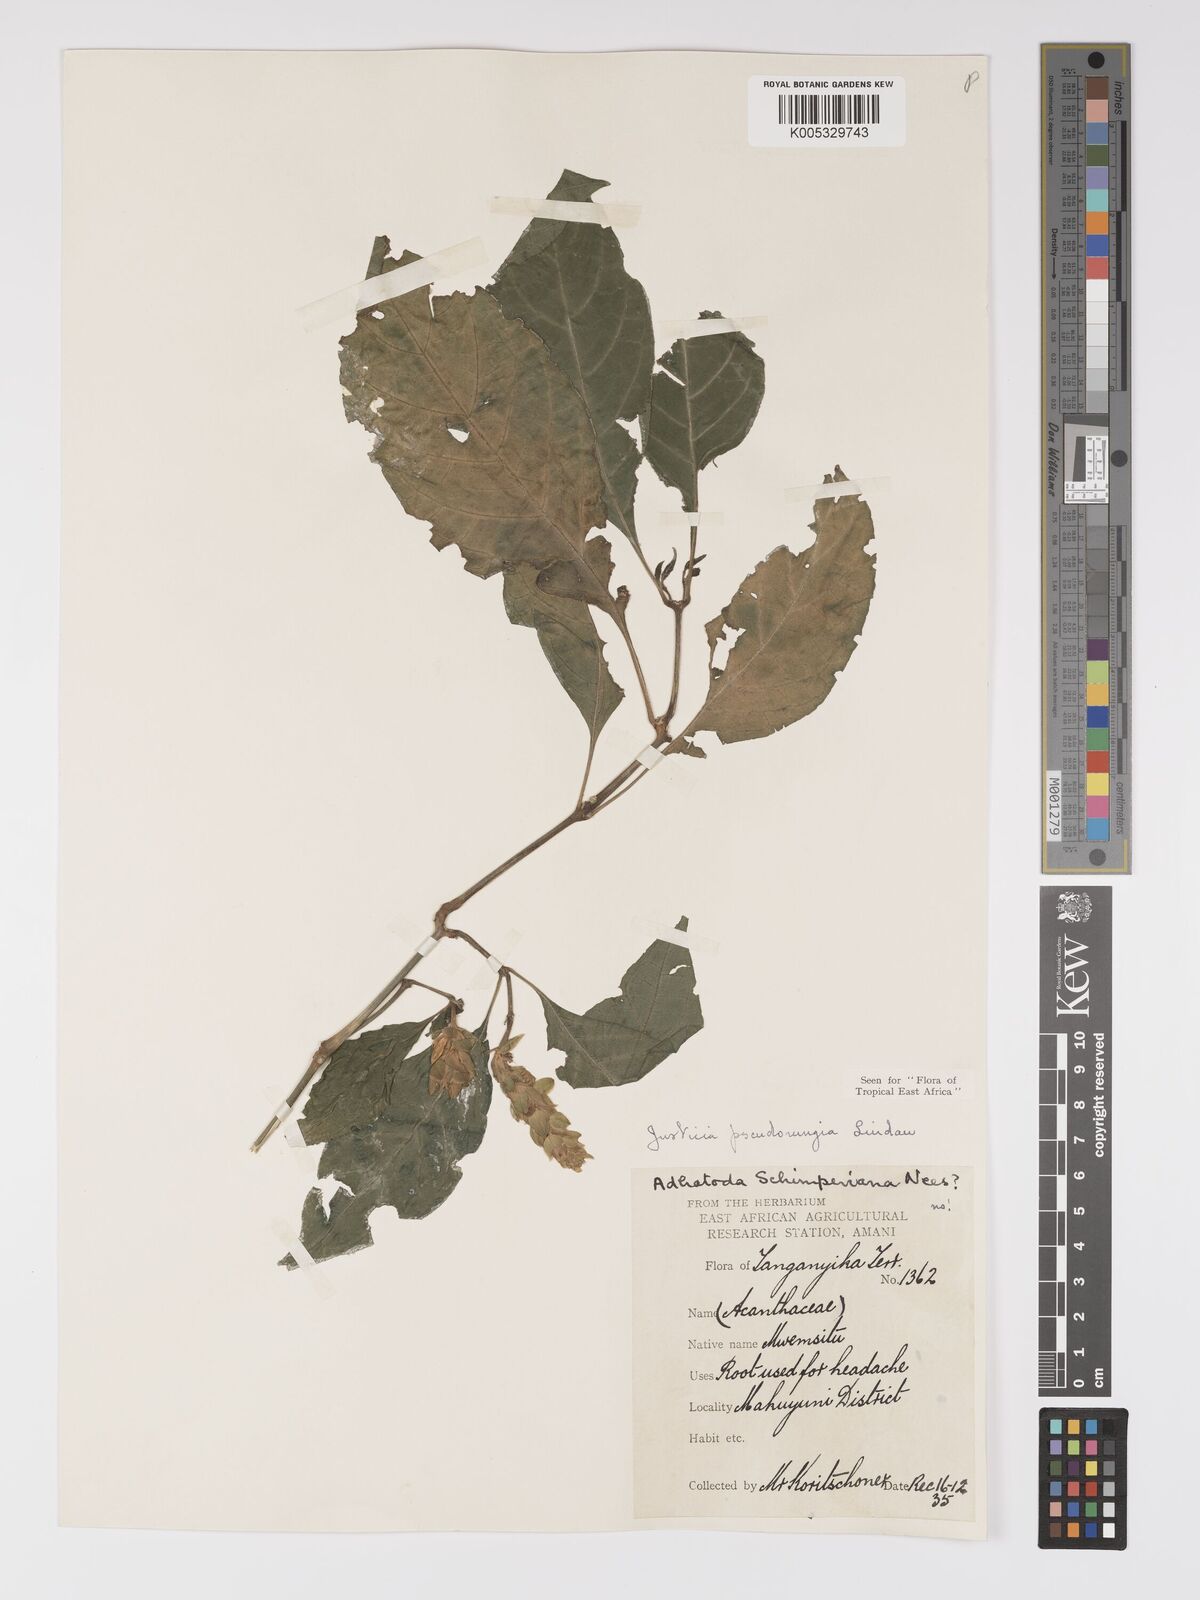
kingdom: Plantae
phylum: Tracheophyta
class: Magnoliopsida
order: Lamiales
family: Acanthaceae
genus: Justicia
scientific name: Justicia pseudorungia
